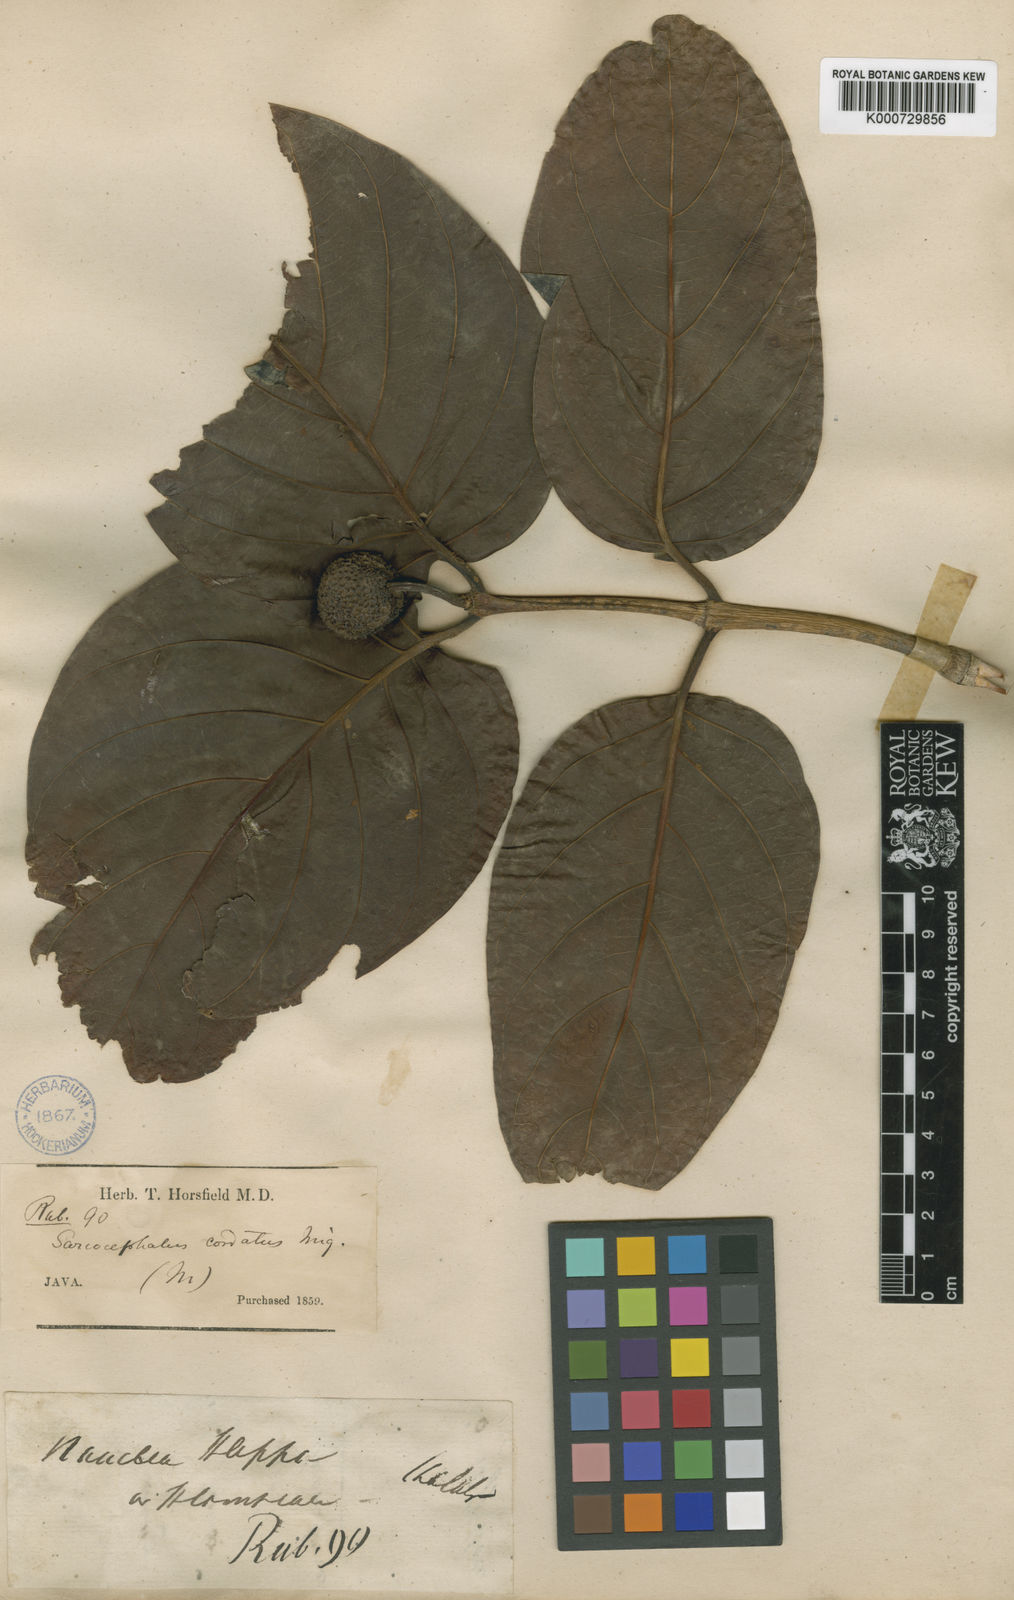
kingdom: Plantae
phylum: Tracheophyta
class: Magnoliopsida
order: Gentianales
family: Rubiaceae
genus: Nauclea
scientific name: Nauclea orientalis
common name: Leichhardt-pine
